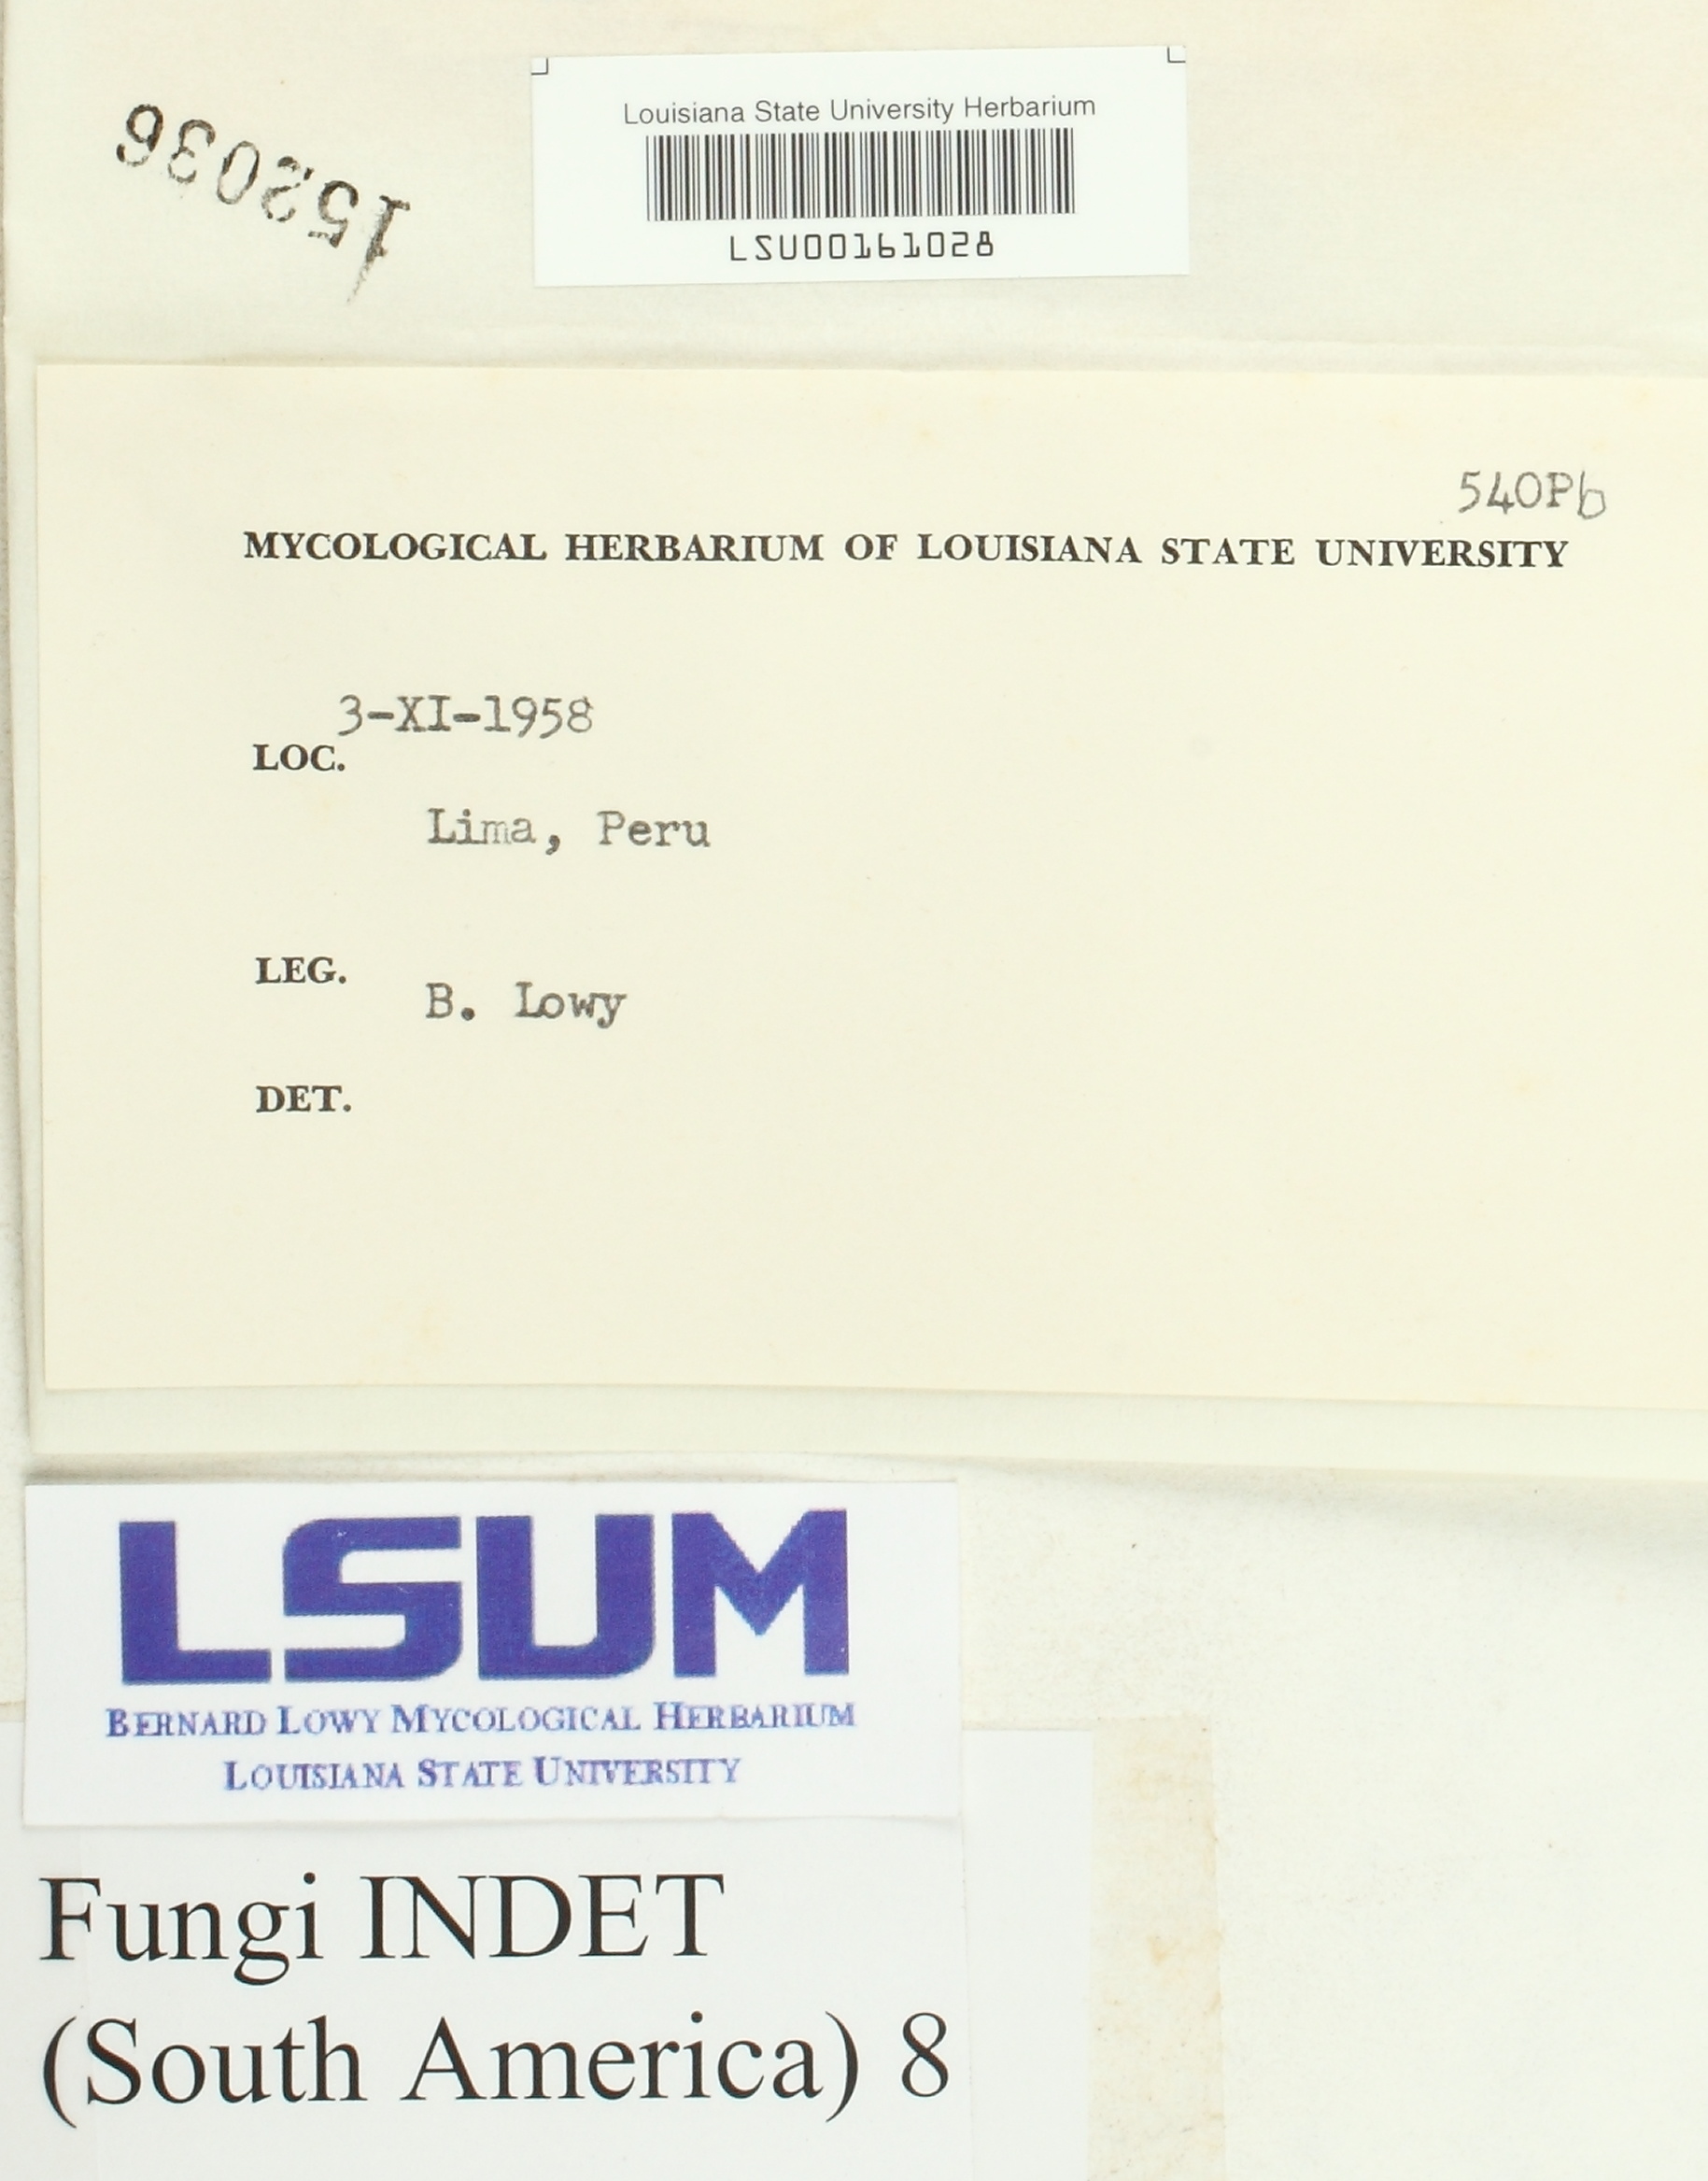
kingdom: Fungi
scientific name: Fungi
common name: Fungi
